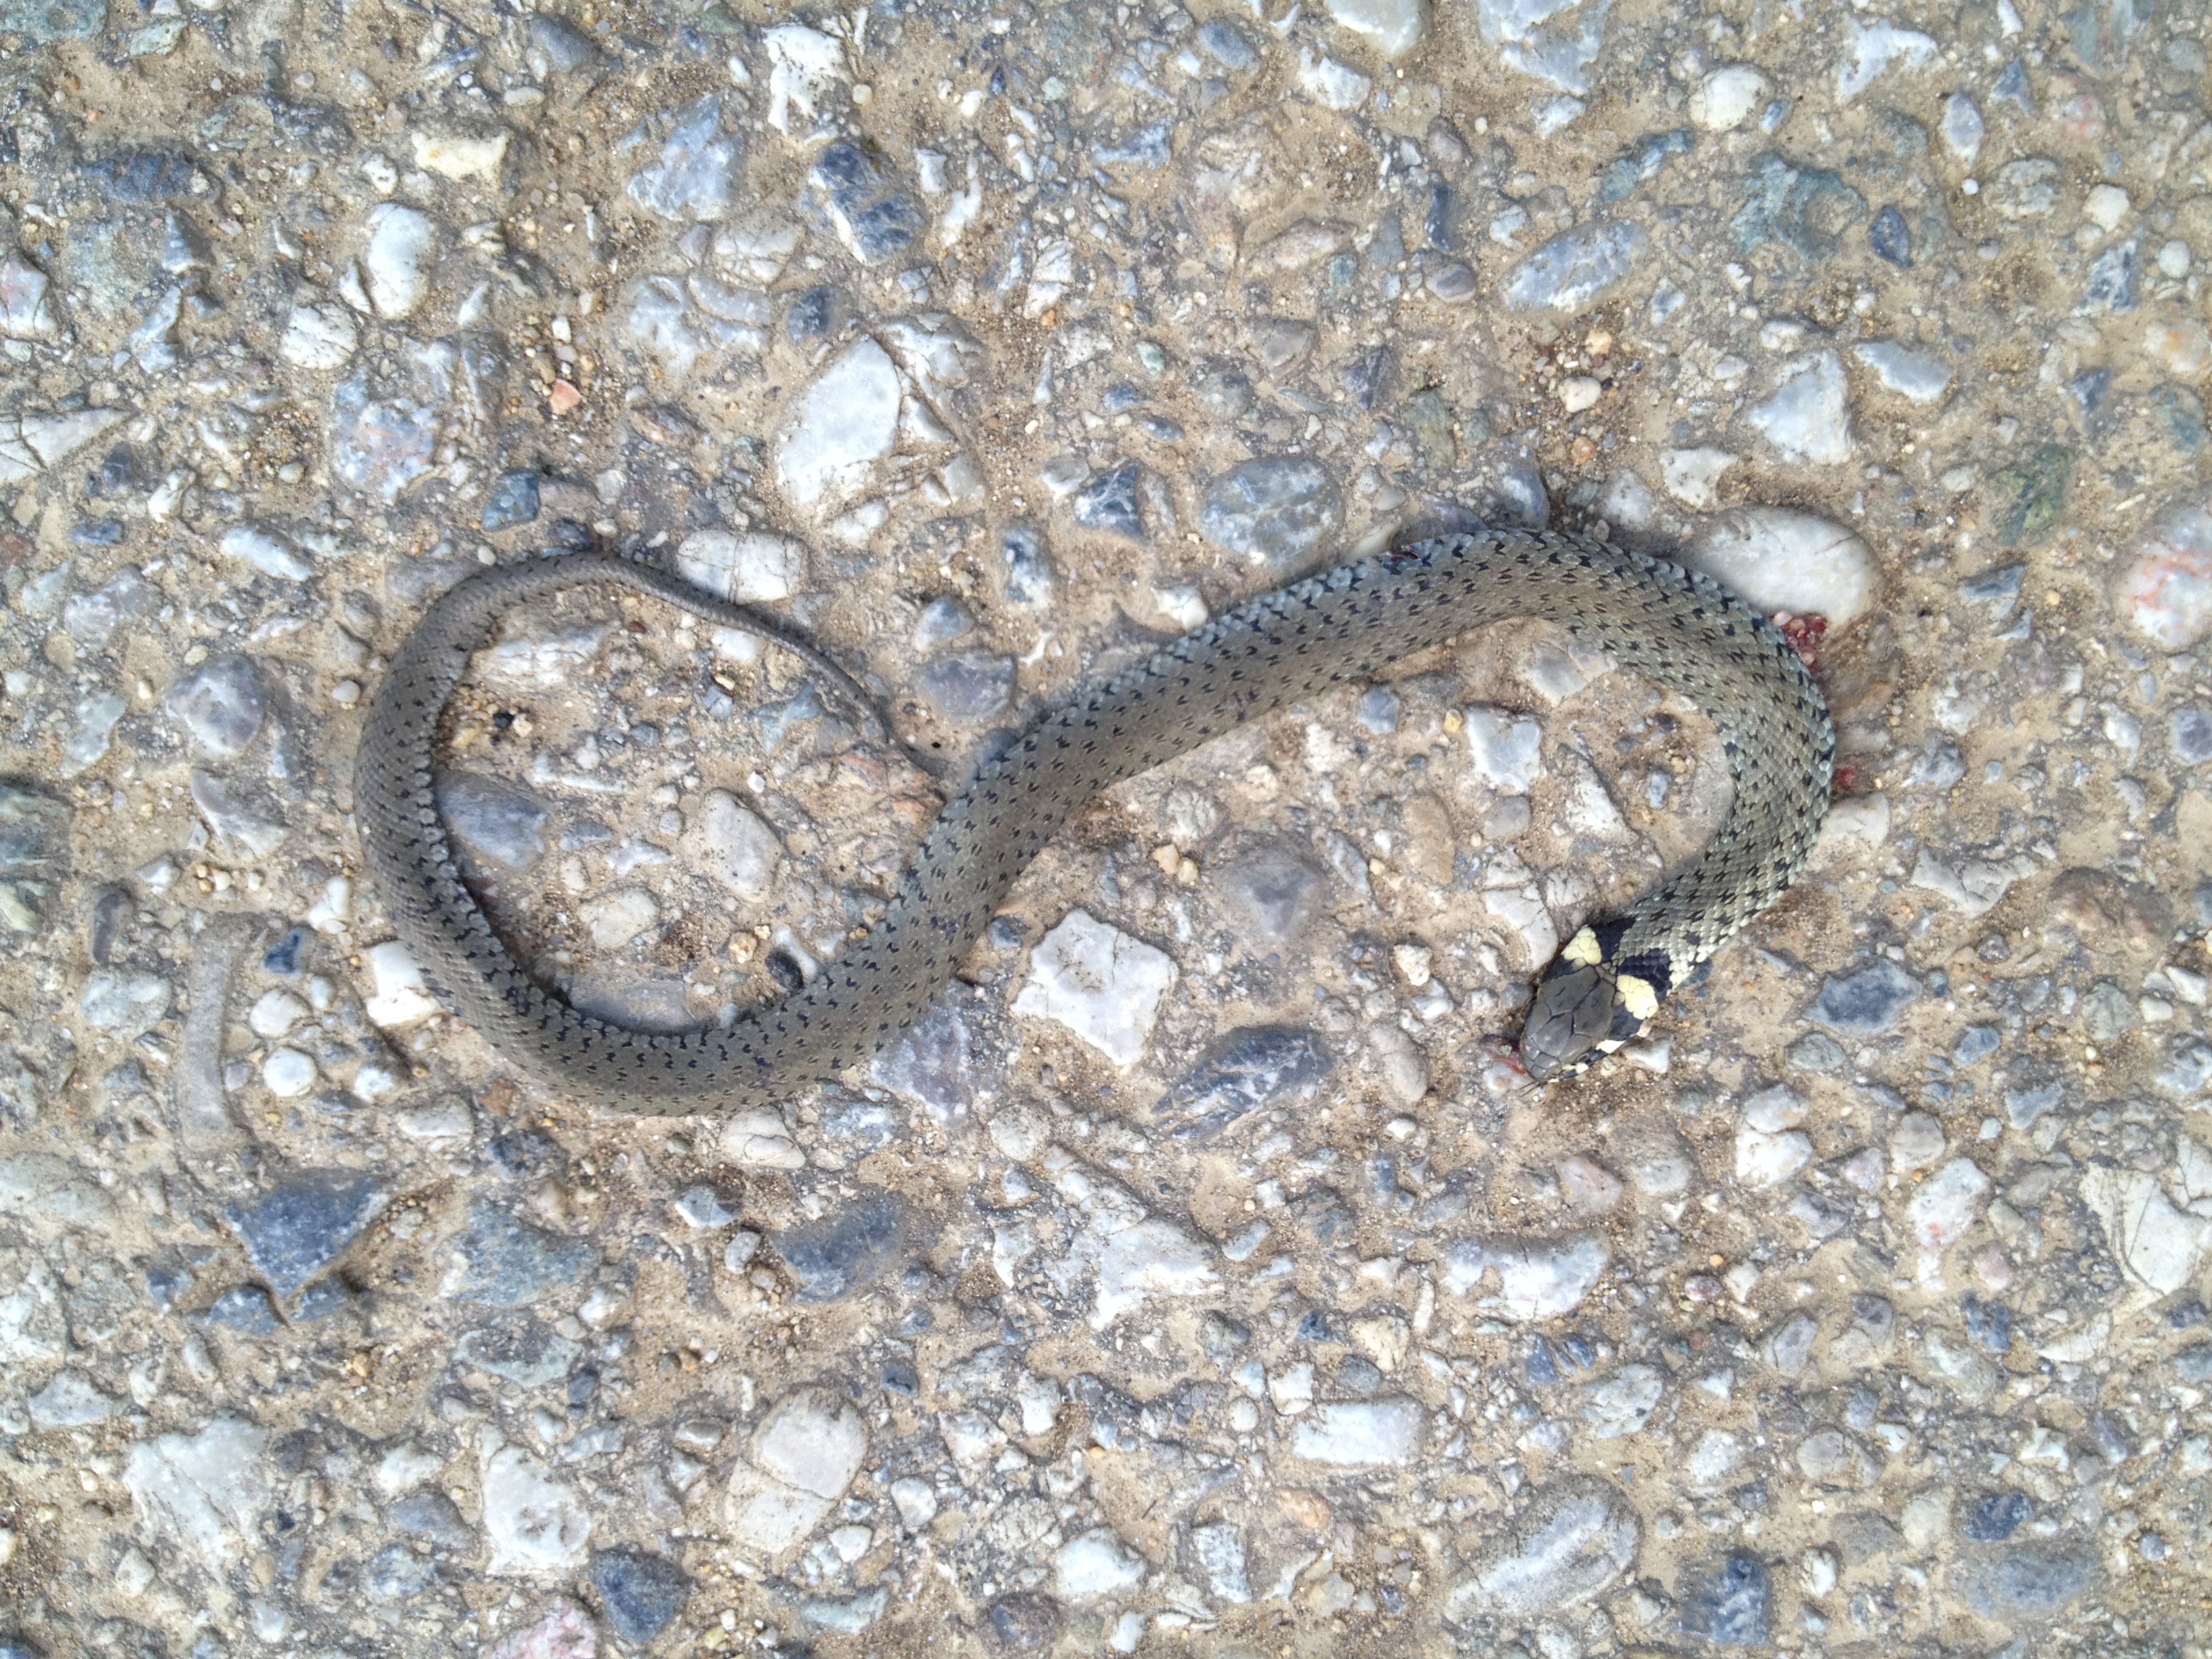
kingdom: Animalia
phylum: Chordata
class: Squamata
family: Colubridae
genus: Natrix
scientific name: Natrix natrix
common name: Grass snake
